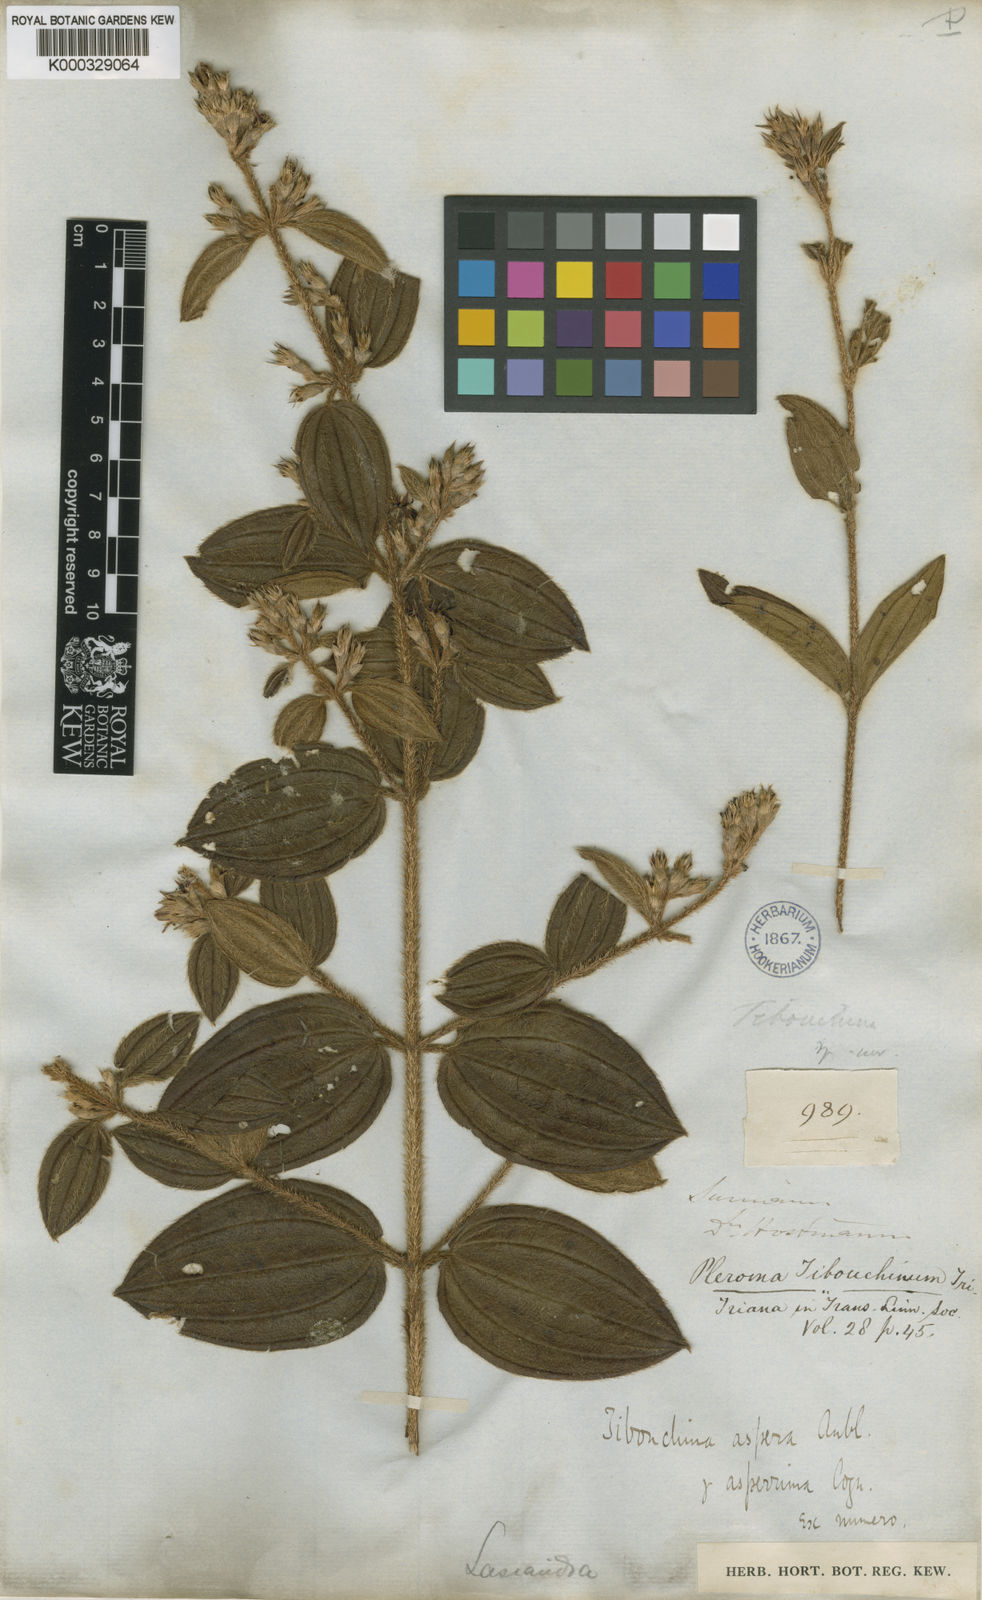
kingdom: Plantae
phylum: Tracheophyta
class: Magnoliopsida
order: Myrtales
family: Melastomataceae
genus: Tibouchina
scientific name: Tibouchina aspera
